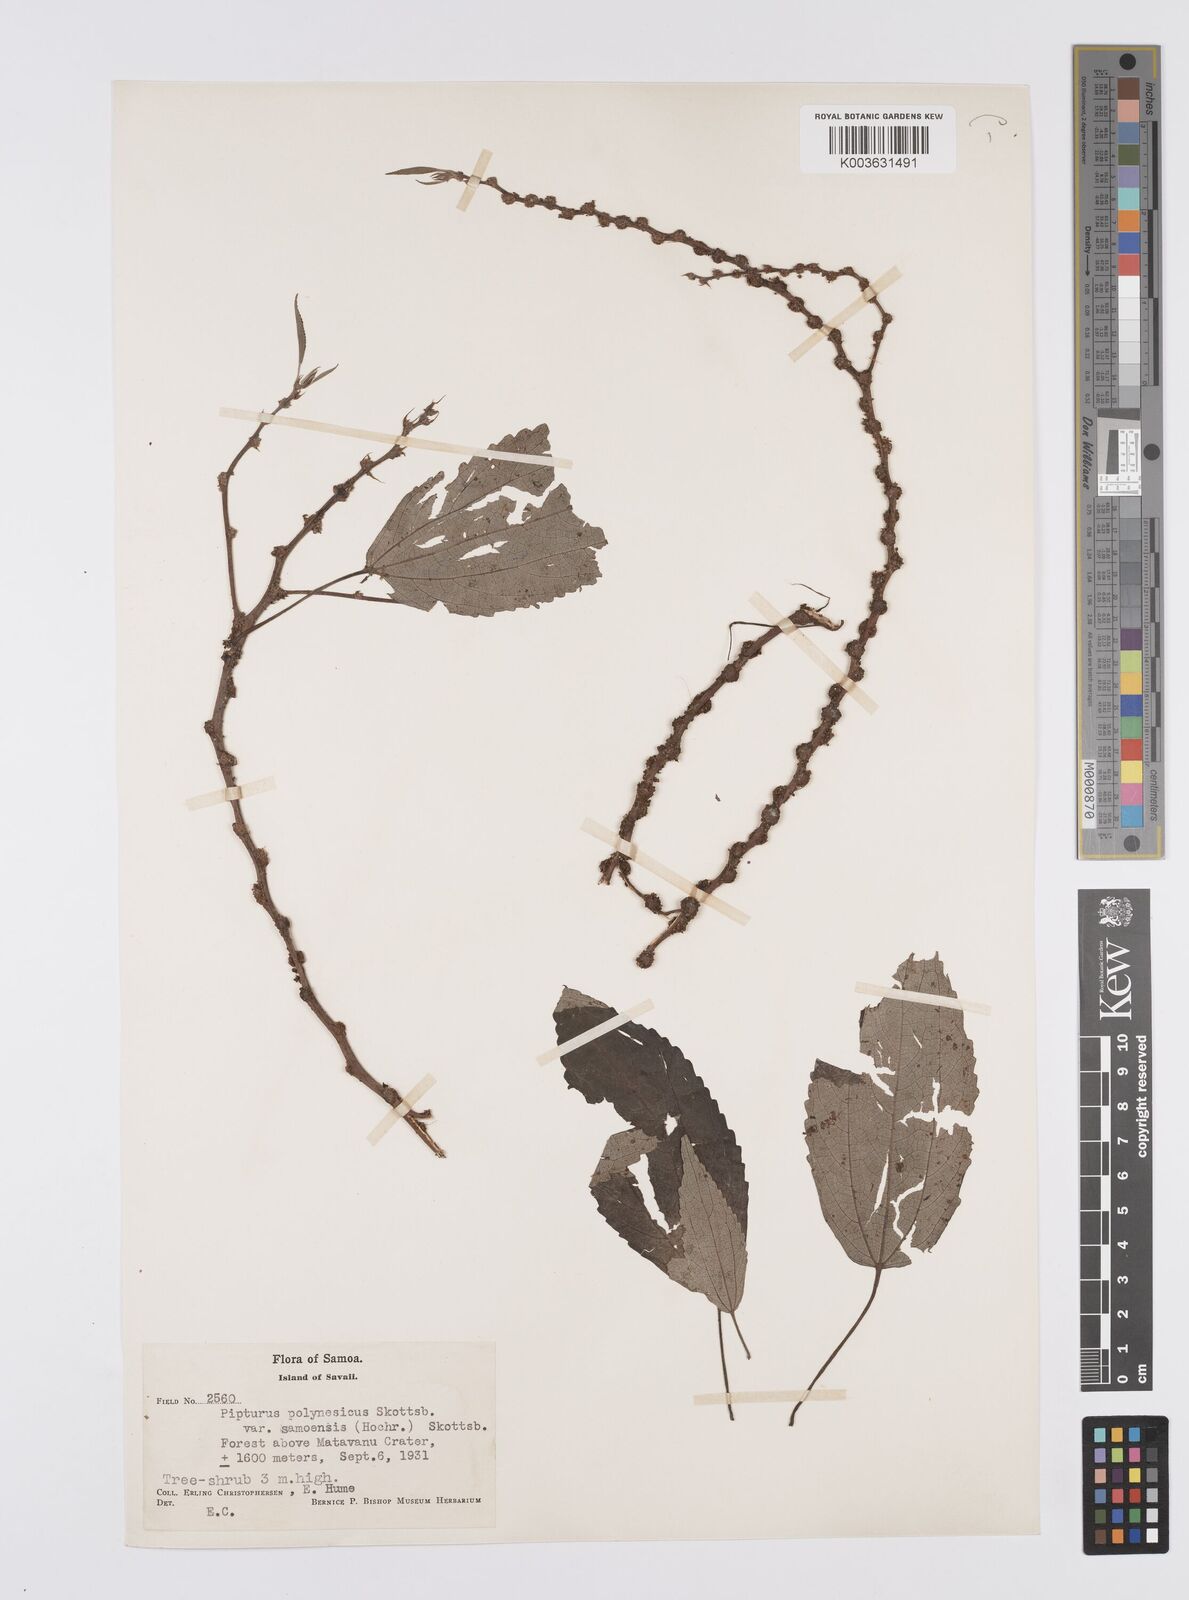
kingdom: Plantae
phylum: Tracheophyta
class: Magnoliopsida
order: Rosales
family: Urticaceae
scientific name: Urticaceae
